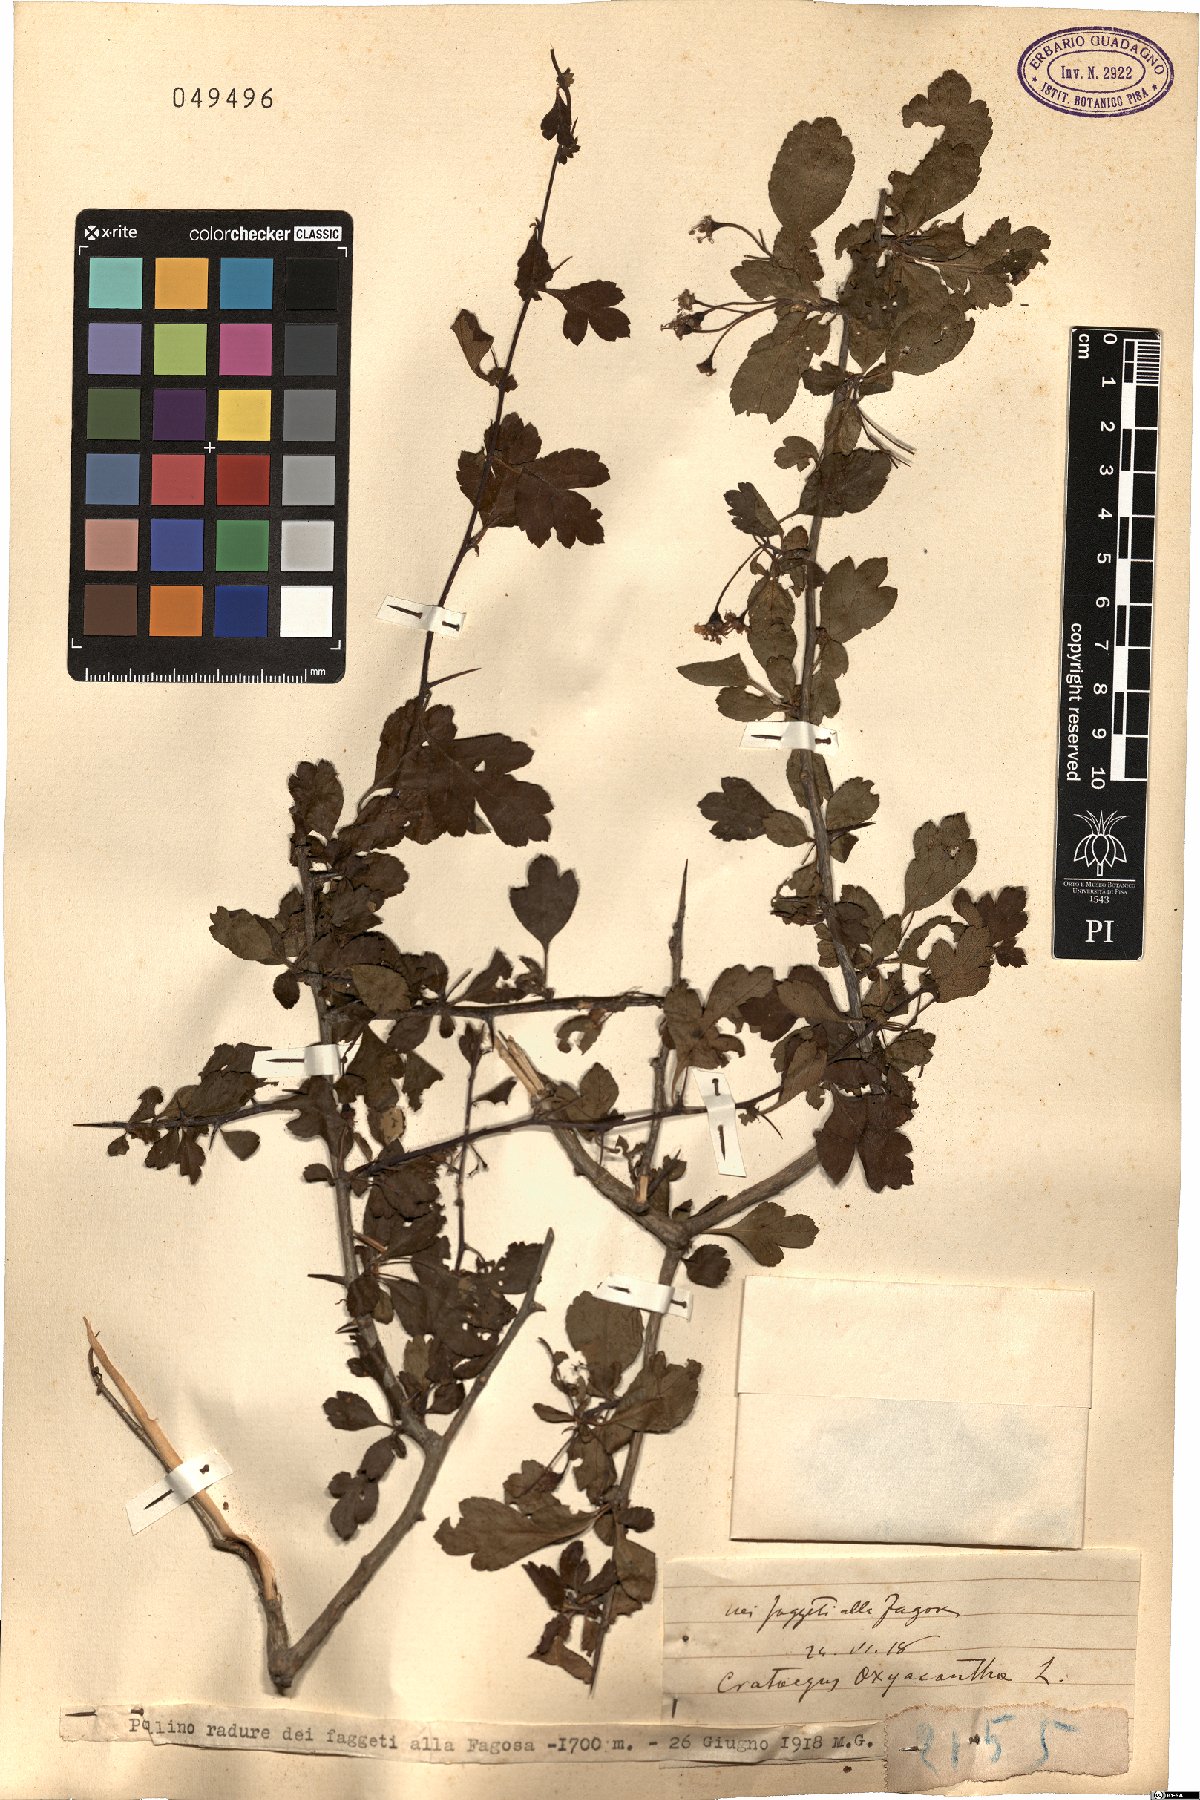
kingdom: Plantae
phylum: Tracheophyta
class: Magnoliopsida
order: Rosales
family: Rosaceae
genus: Crataegus
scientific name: Crataegus monogyna
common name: Hawthorn
